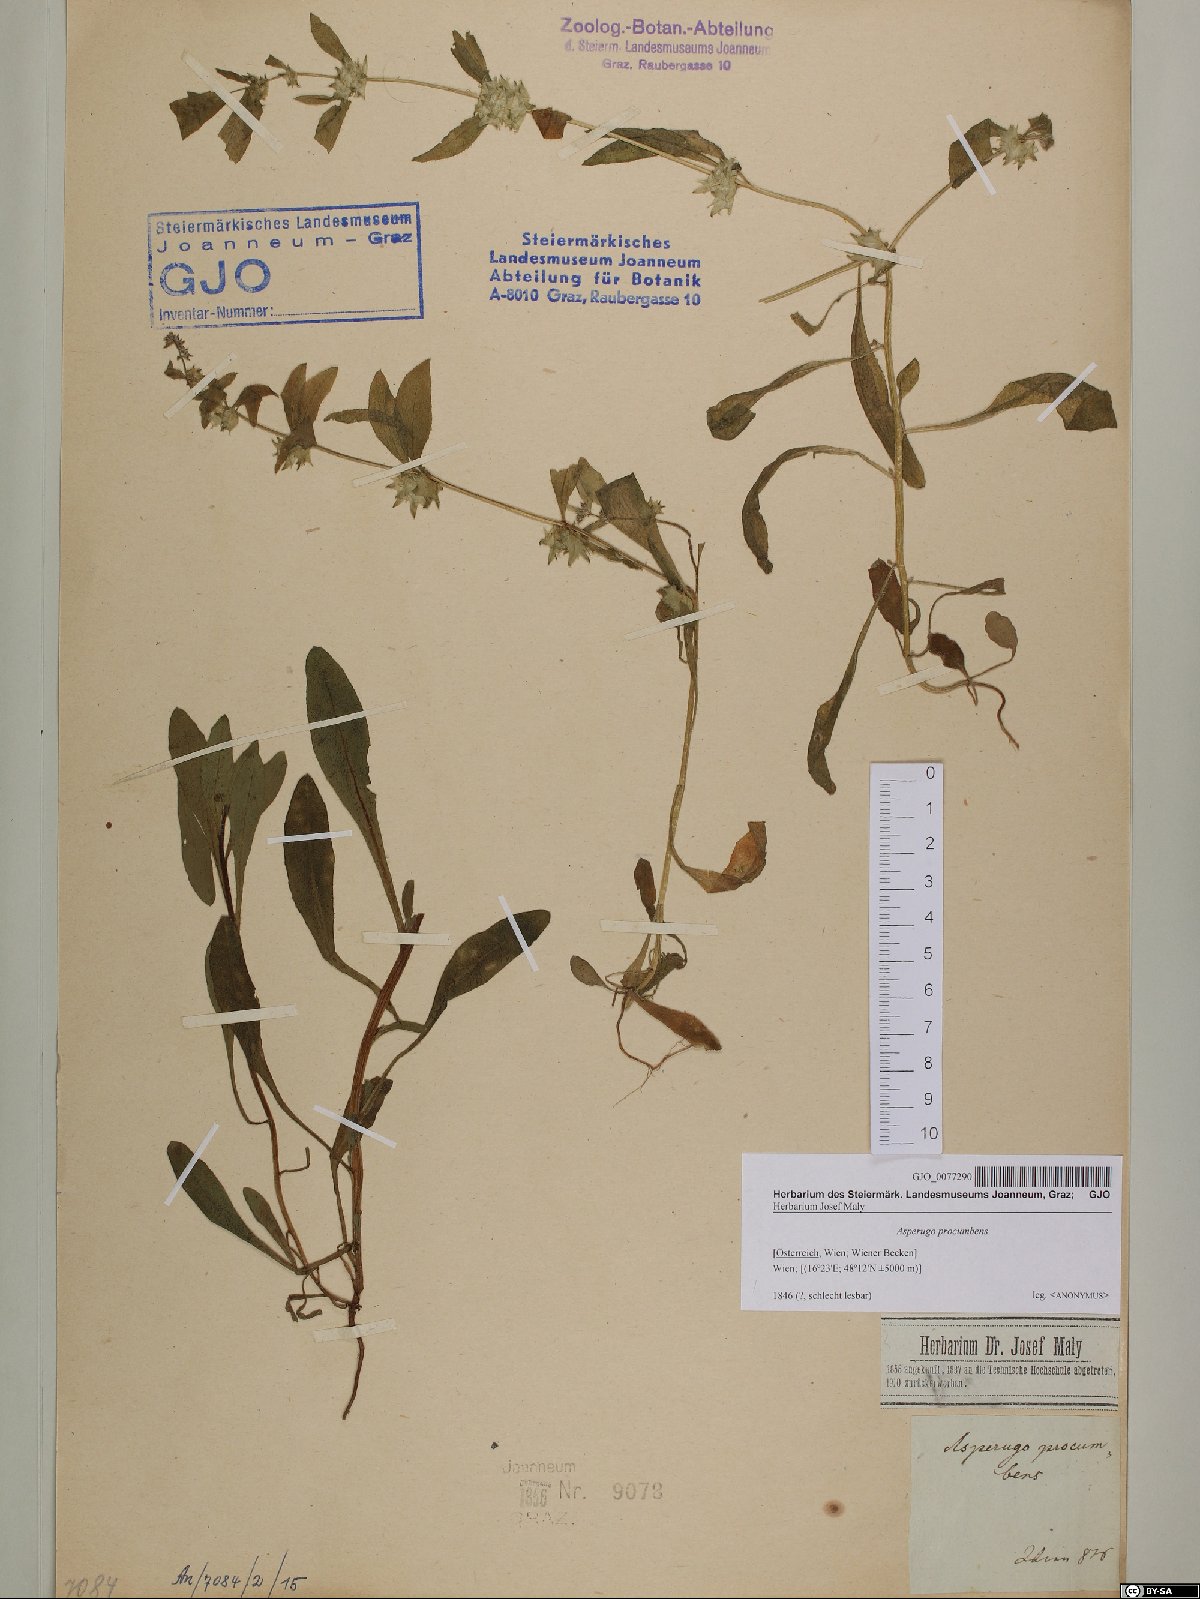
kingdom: Plantae
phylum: Tracheophyta
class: Magnoliopsida
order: Boraginales
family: Boraginaceae
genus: Asperugo
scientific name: Asperugo procumbens
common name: Madwort
